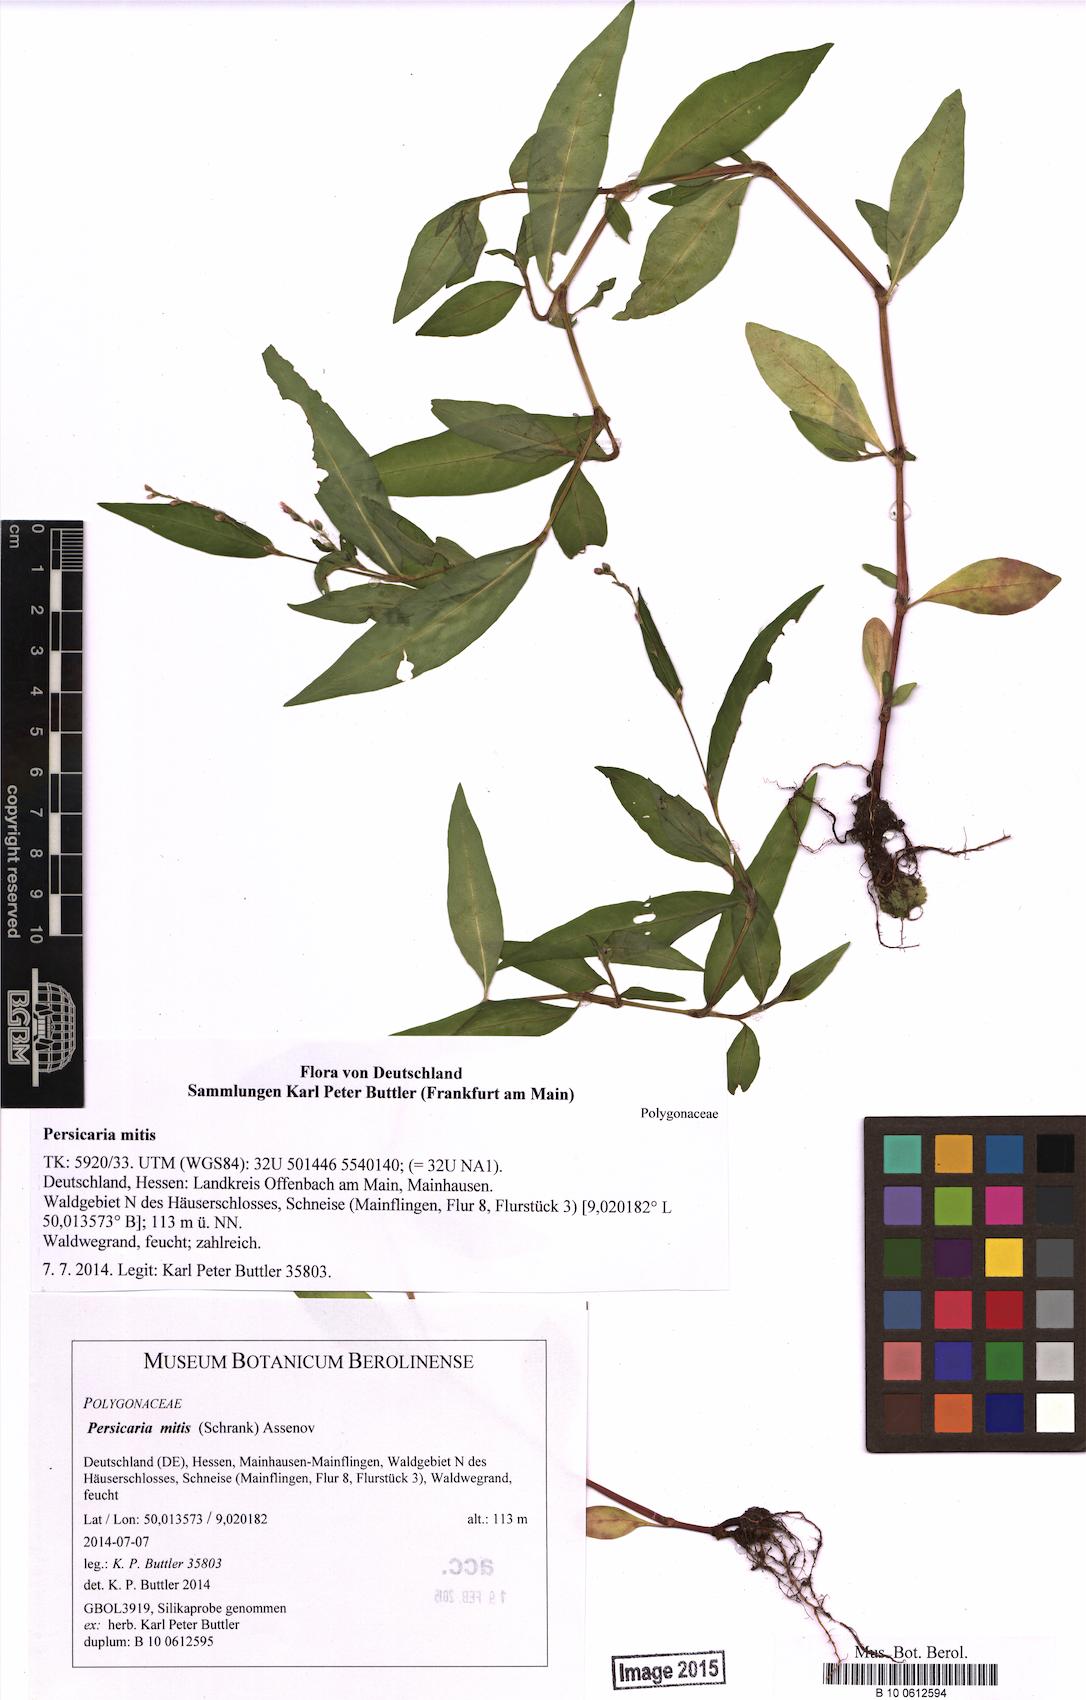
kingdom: Plantae
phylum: Tracheophyta
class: Magnoliopsida
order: Caryophyllales
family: Polygonaceae
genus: Persicaria
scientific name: Persicaria mitis
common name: Tasteless water-pepper
